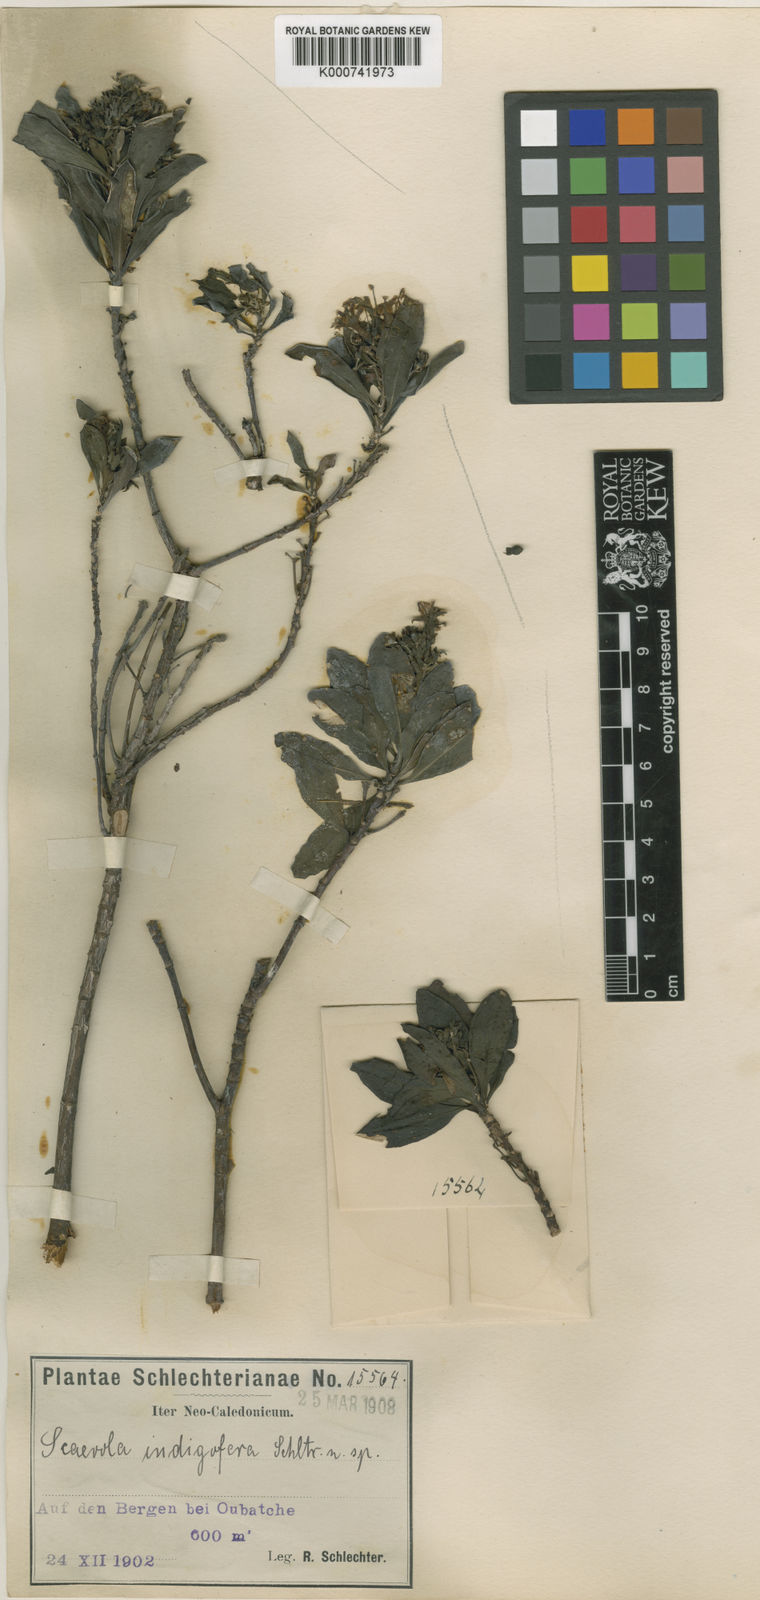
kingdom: Plantae
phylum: Tracheophyta
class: Magnoliopsida
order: Asterales
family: Goodeniaceae
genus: Scaevola
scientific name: Scaevola montana
